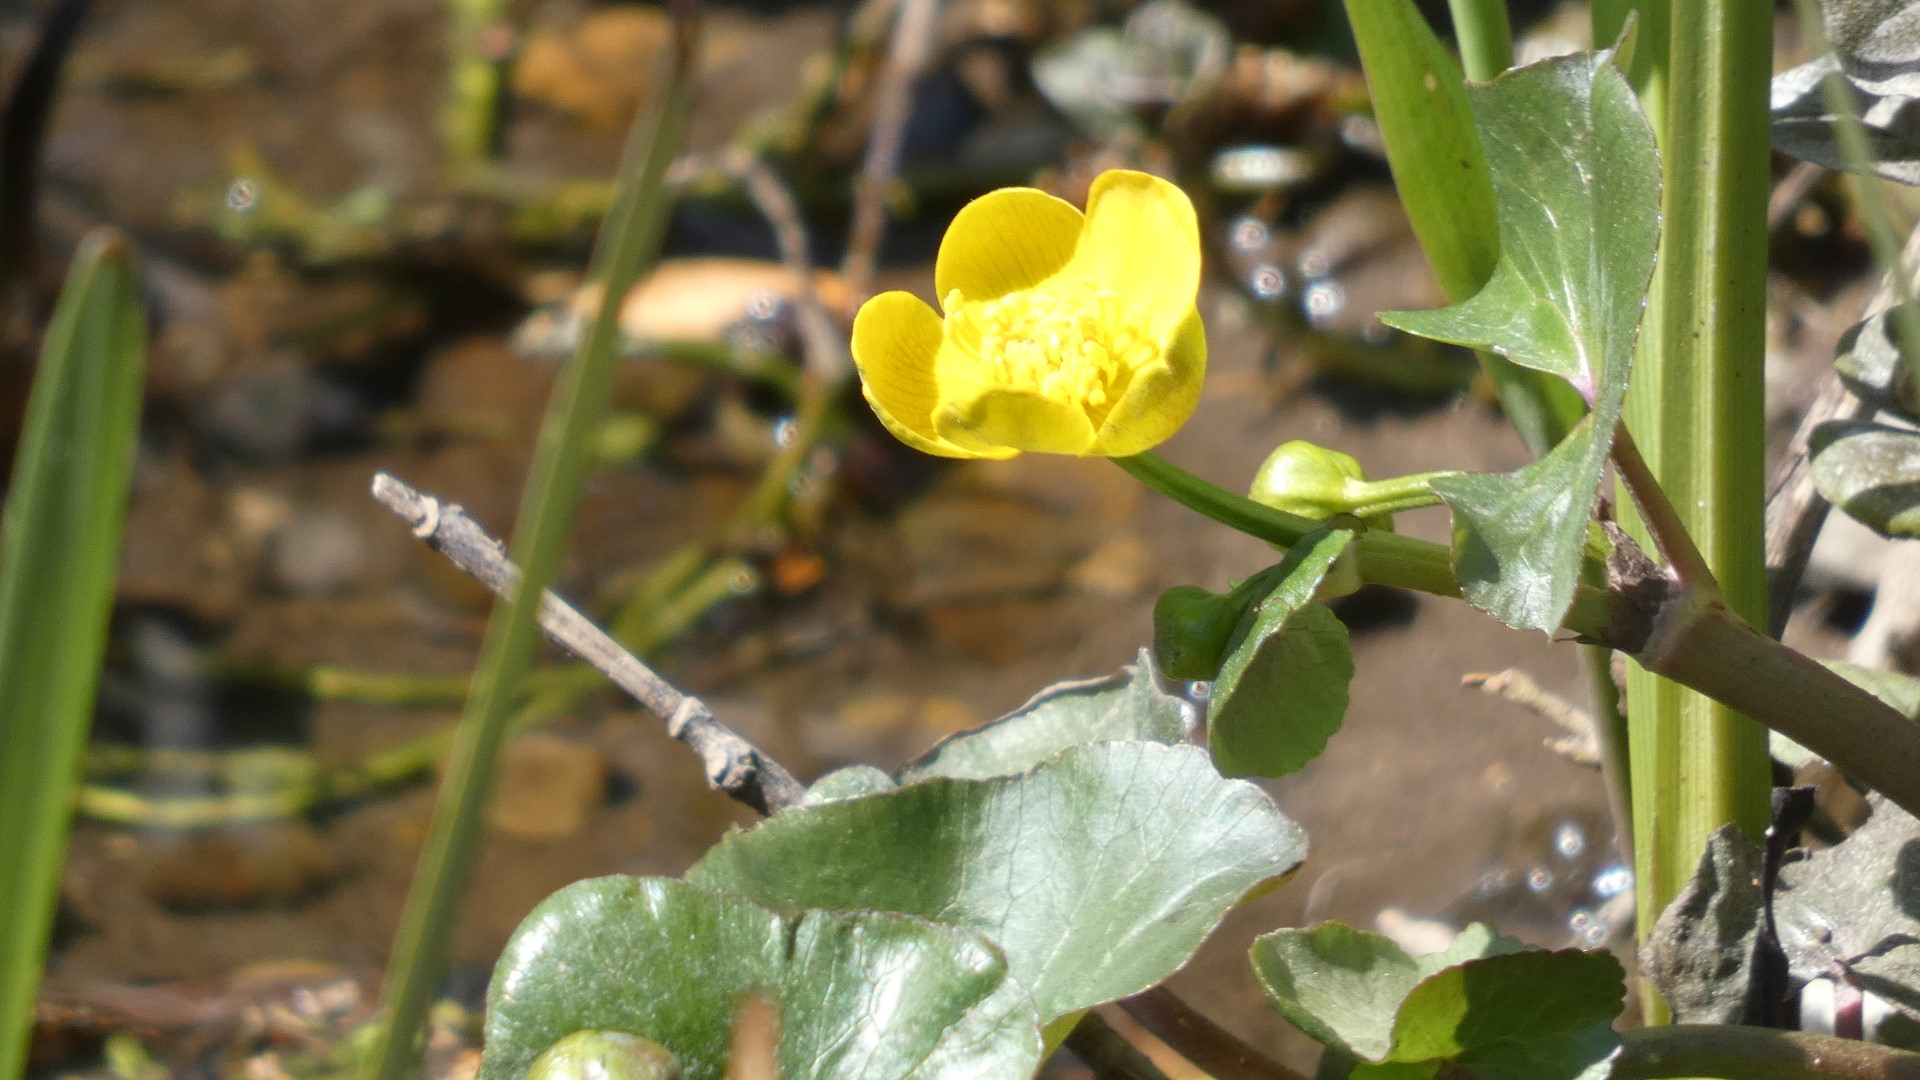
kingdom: Plantae
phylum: Tracheophyta
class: Magnoliopsida
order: Ranunculales
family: Ranunculaceae
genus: Caltha
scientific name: Caltha palustris
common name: Eng-kabbeleje
